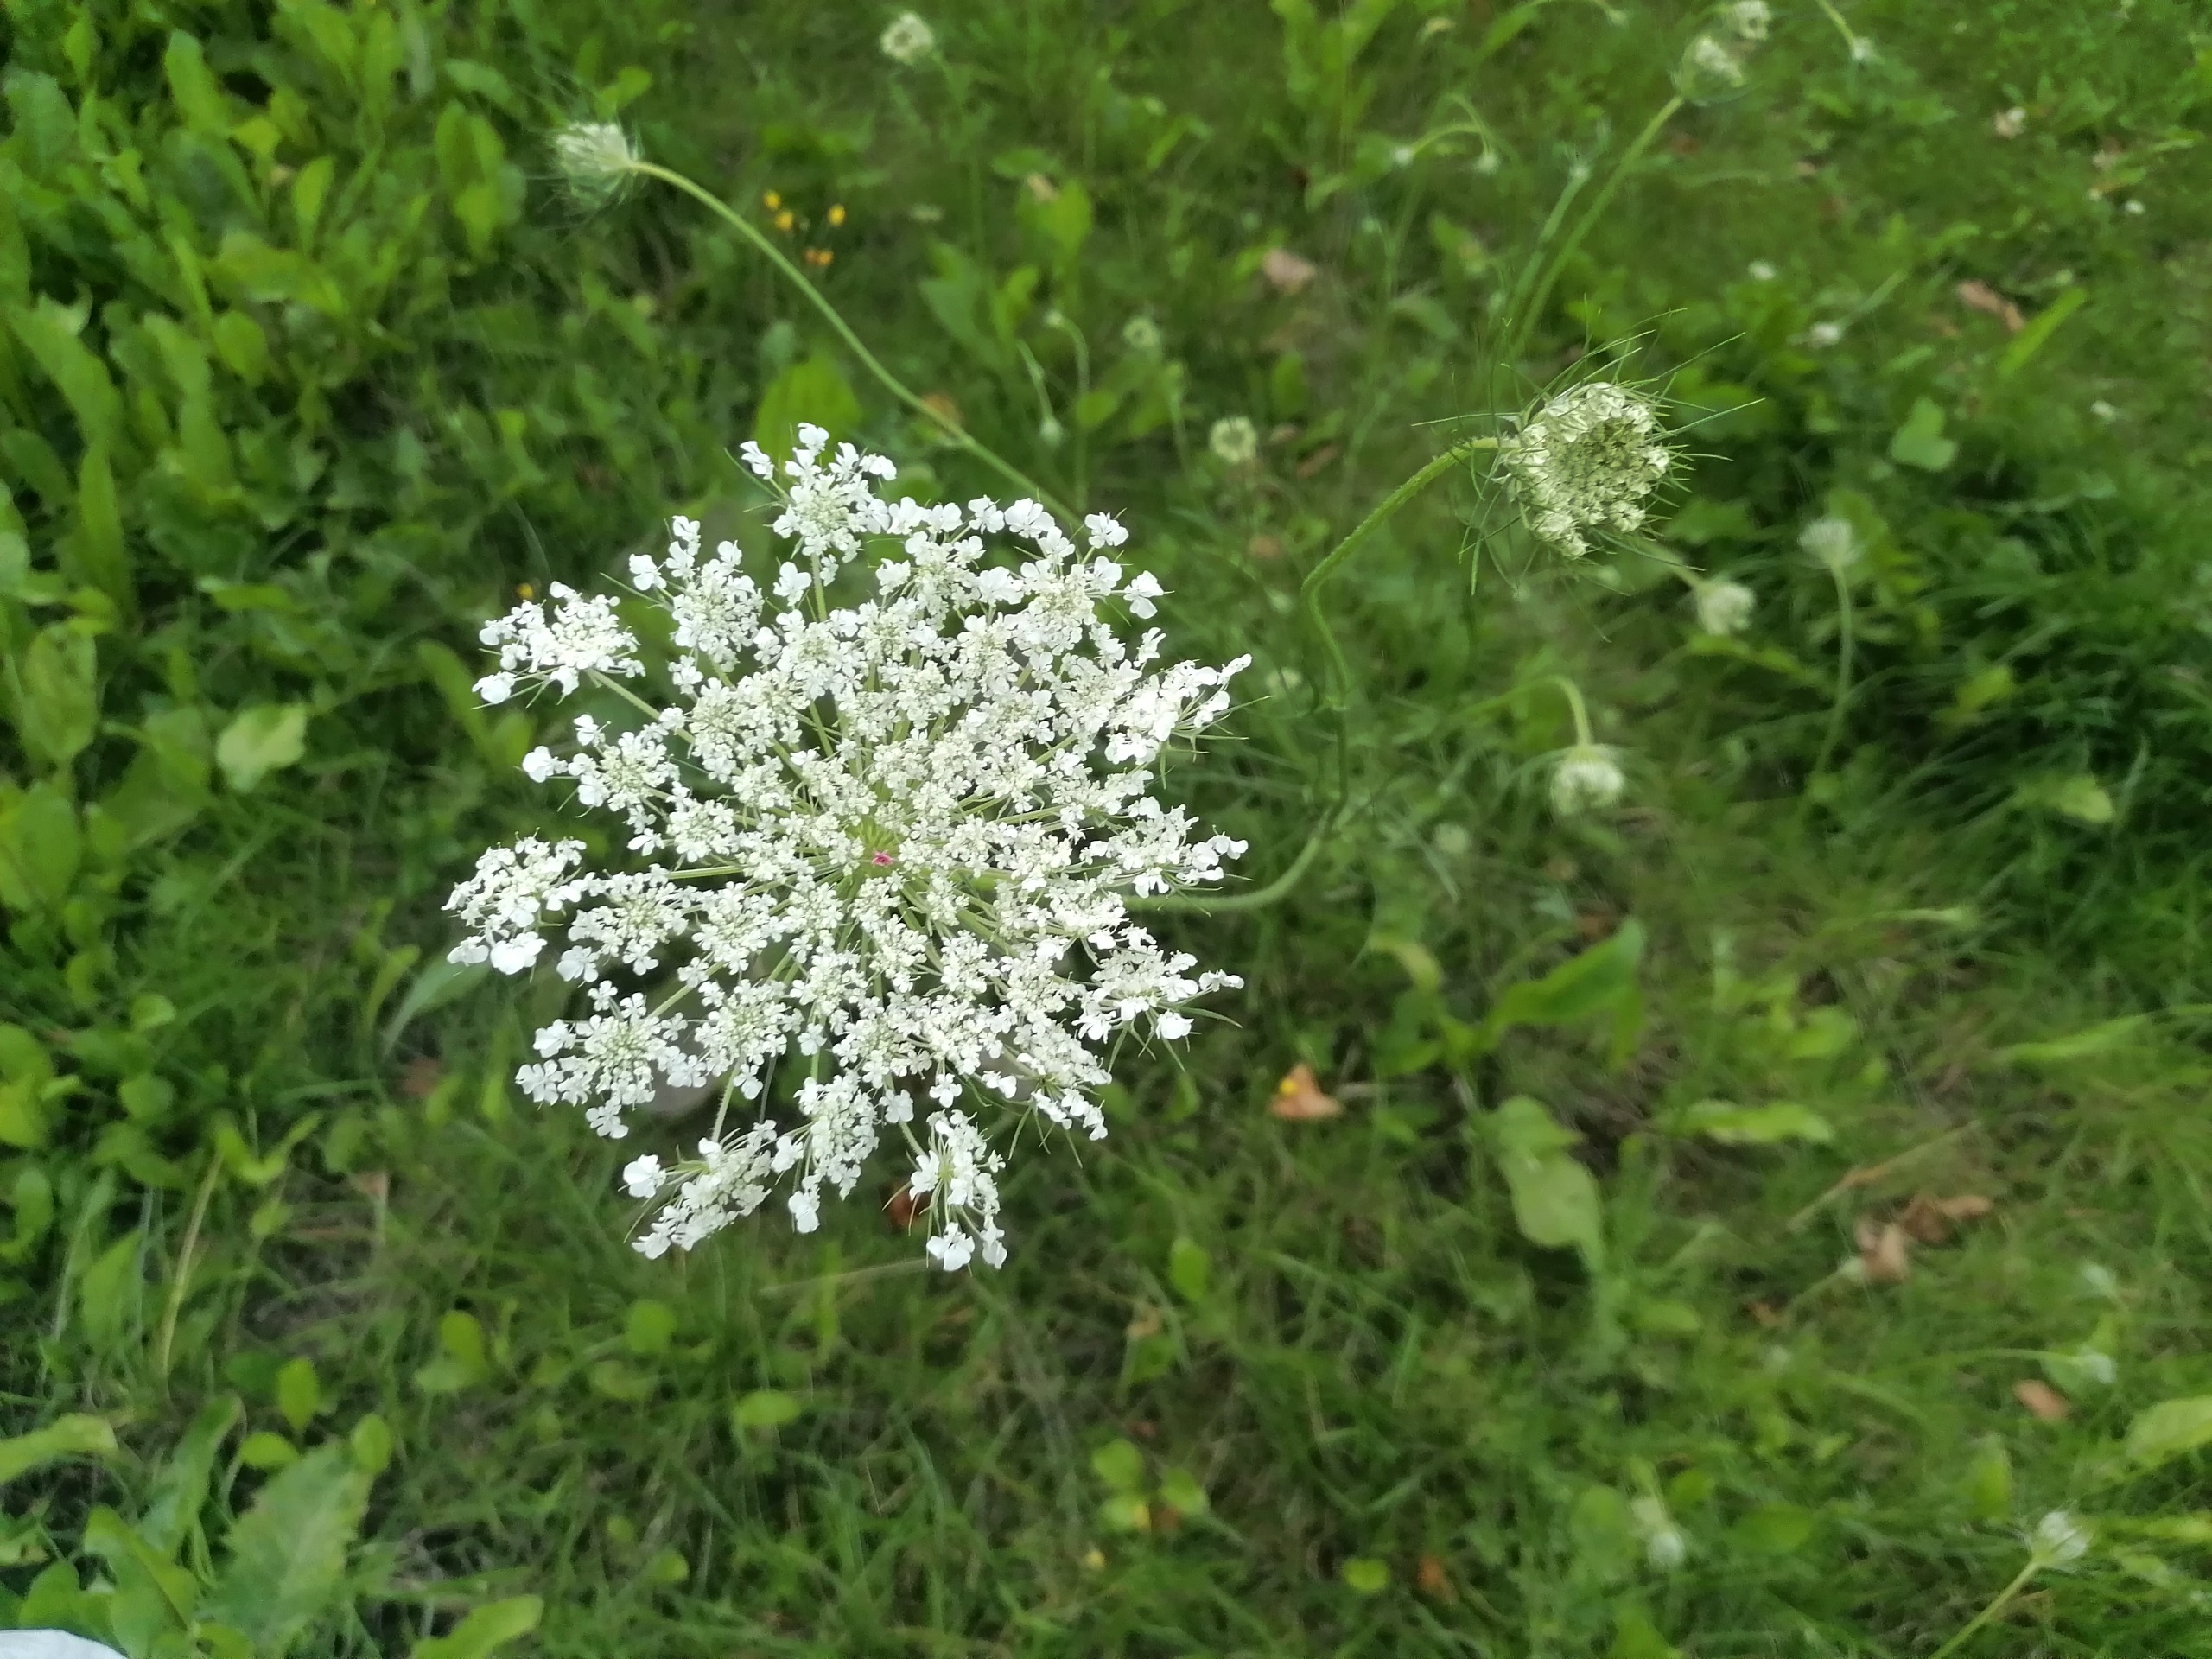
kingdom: Plantae
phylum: Tracheophyta
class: Magnoliopsida
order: Apiales
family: Apiaceae
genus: Daucus
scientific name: Daucus carota
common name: Gulerod
